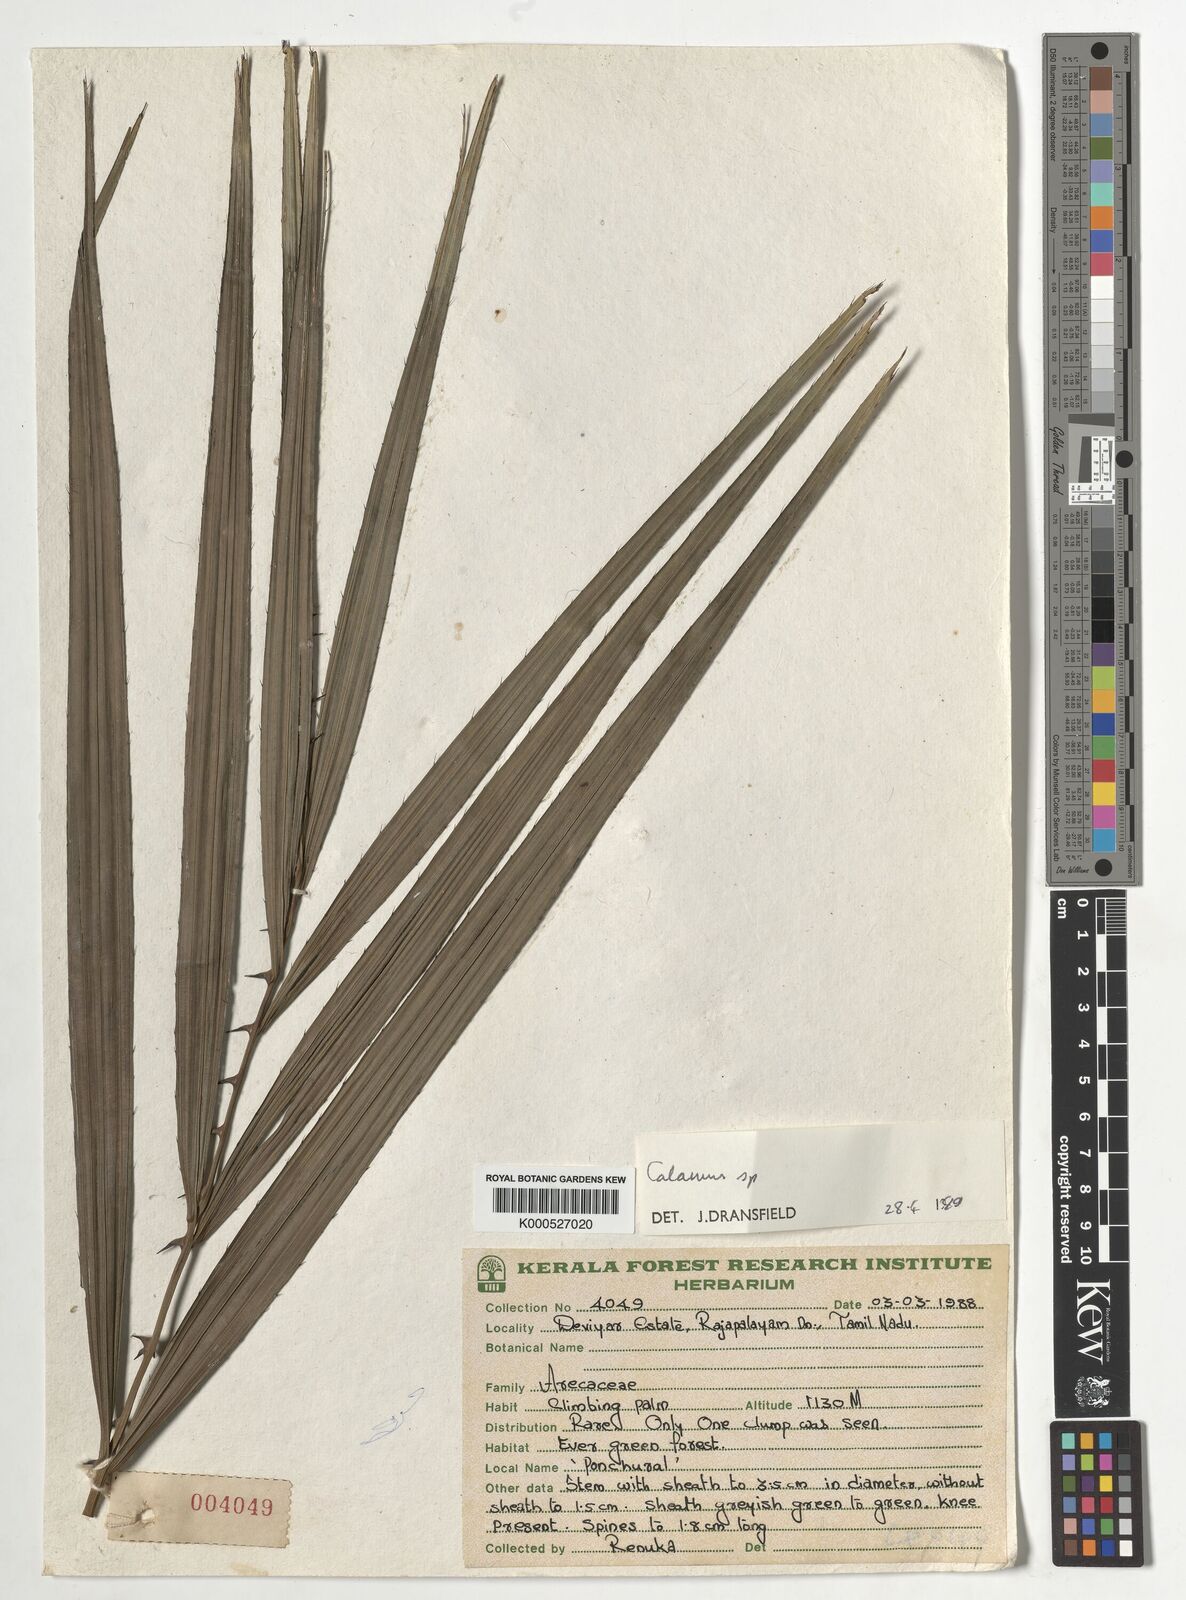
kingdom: Plantae
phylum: Tracheophyta
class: Liliopsida
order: Arecales
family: Arecaceae
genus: Calamus
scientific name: Calamus gamblei
